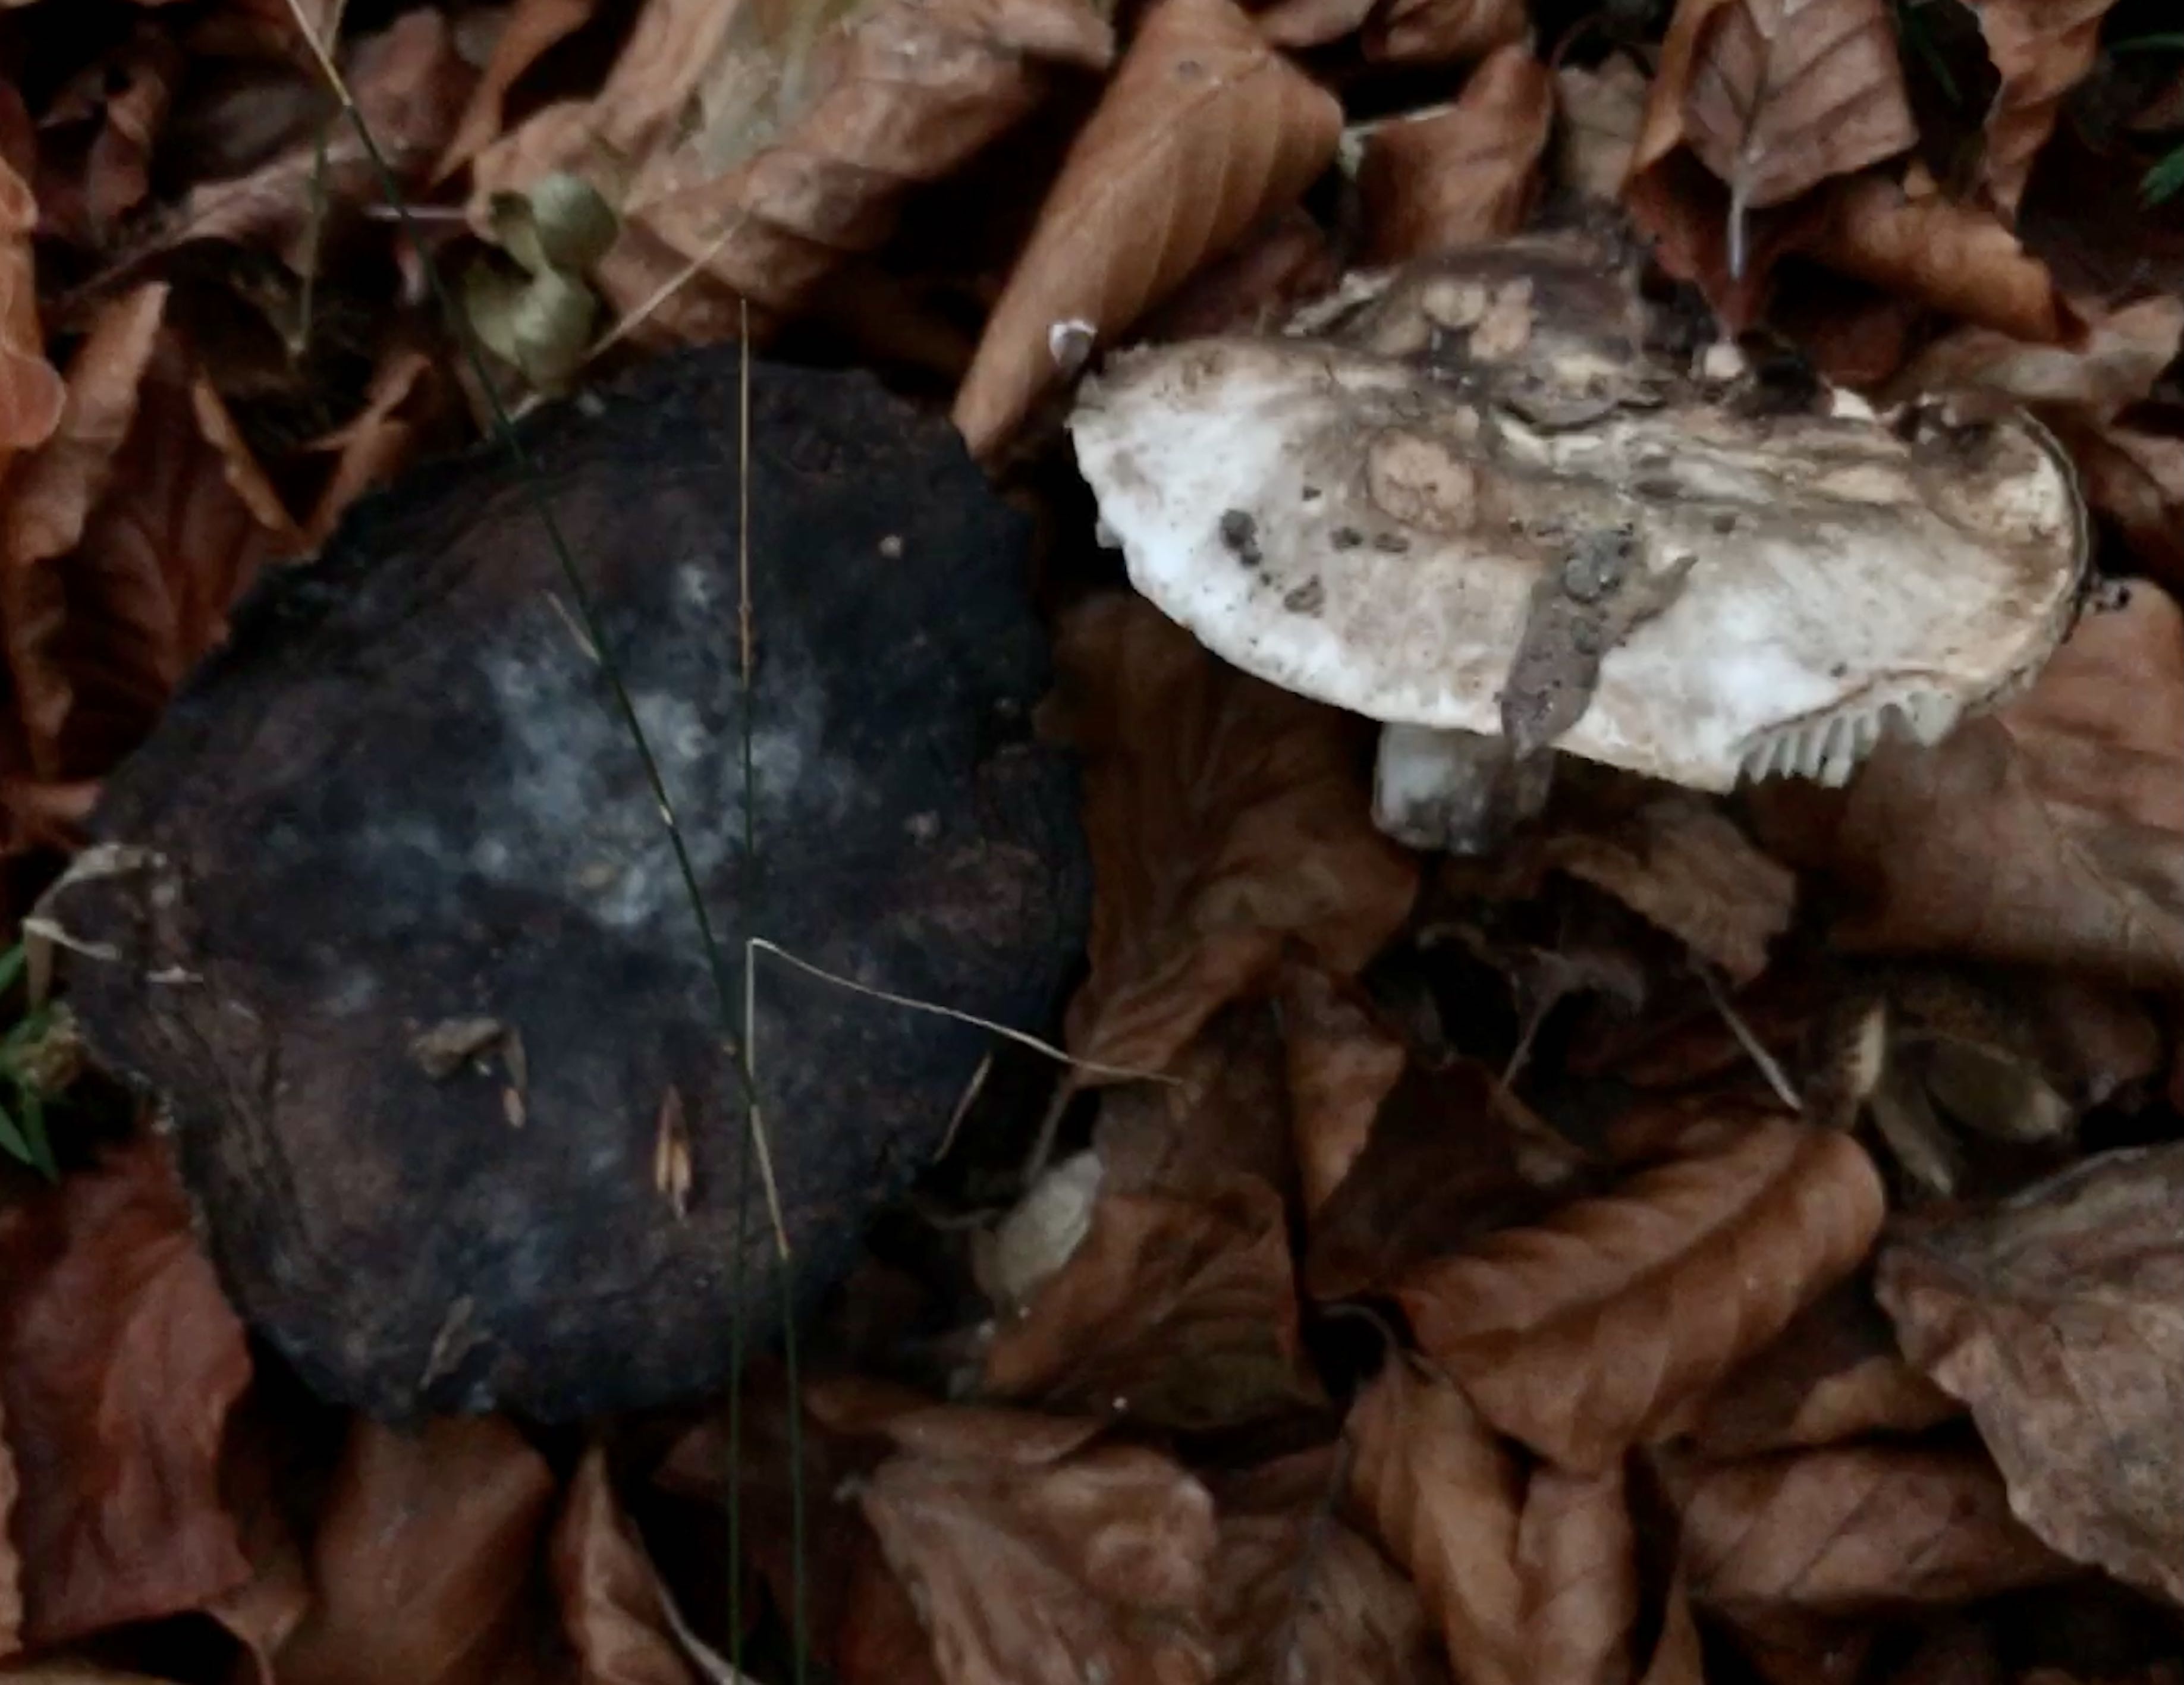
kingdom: Fungi
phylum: Basidiomycota
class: Agaricomycetes
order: Russulales
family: Russulaceae
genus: Russula
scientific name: Russula adusta
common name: sværtende skørhat
